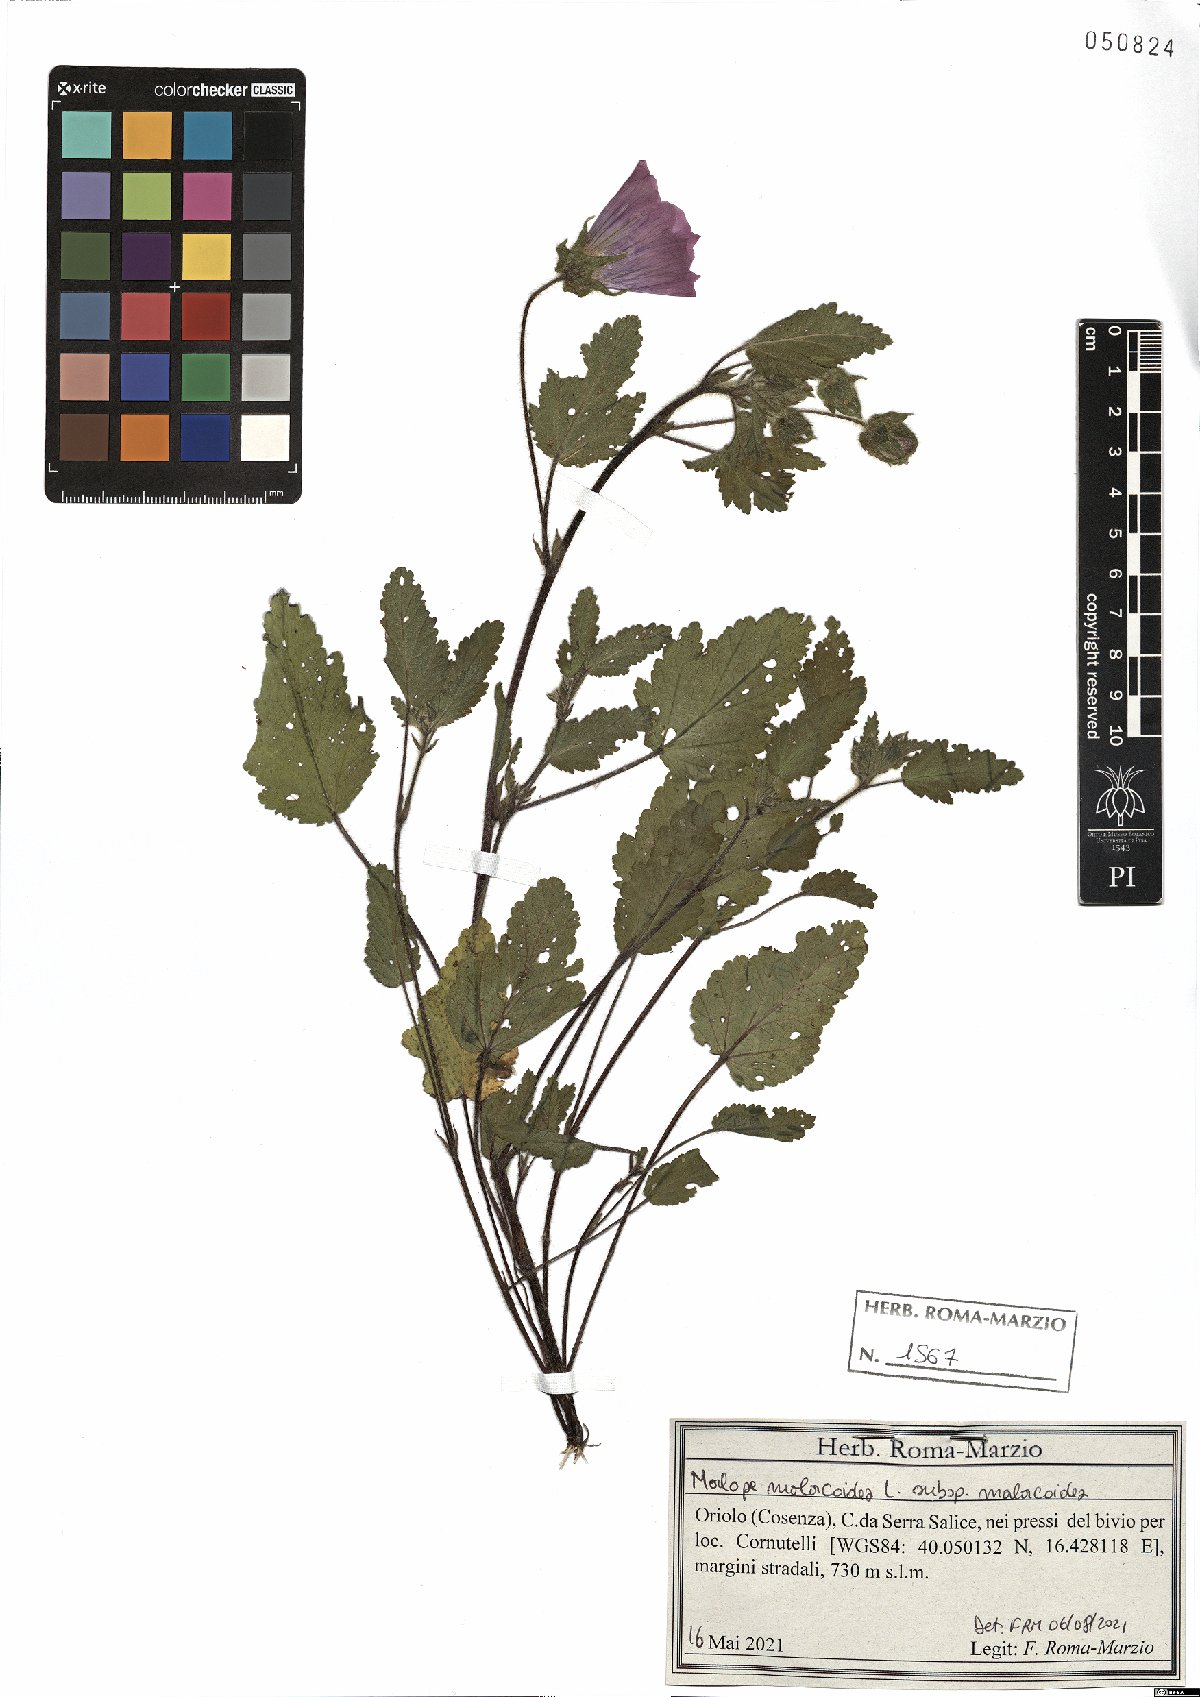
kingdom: Plantae
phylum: Tracheophyta
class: Magnoliopsida
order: Malvales
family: Malvaceae
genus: Malope
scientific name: Malope malacoides
